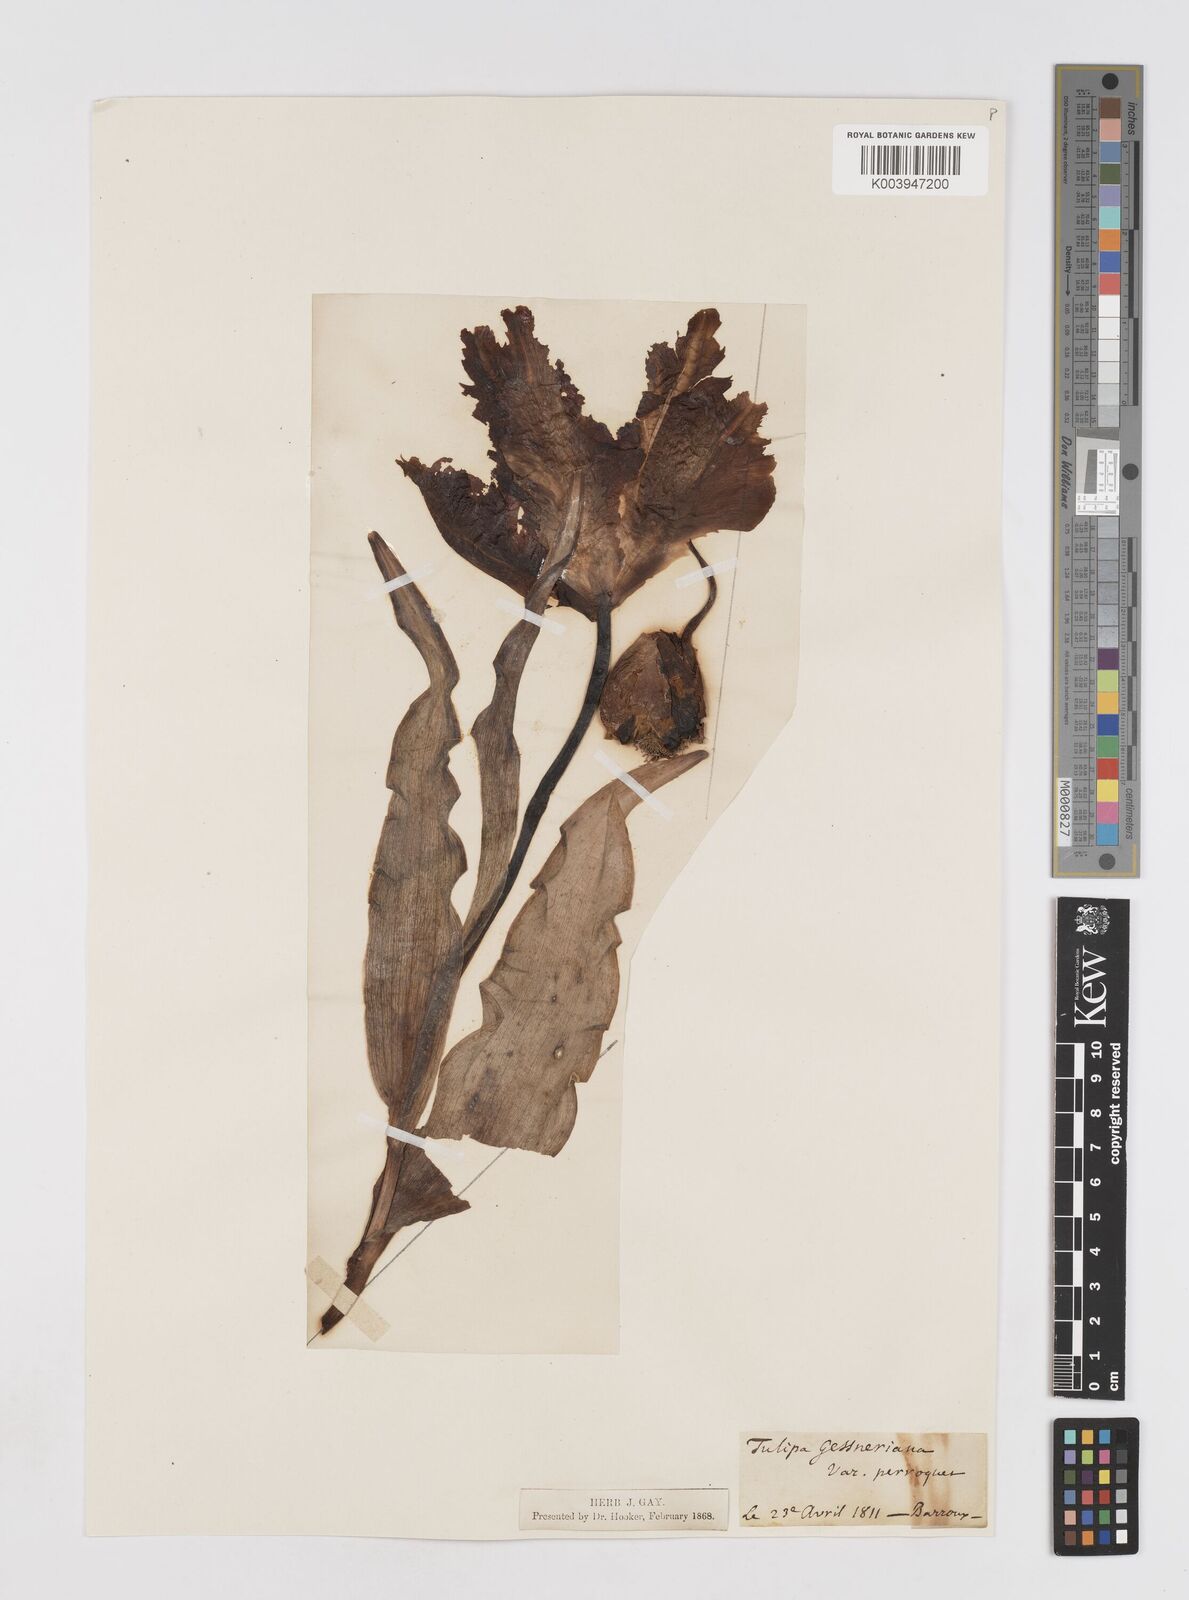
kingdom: Plantae
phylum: Tracheophyta
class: Liliopsida
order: Liliales
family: Liliaceae
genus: Tulipa
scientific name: Tulipa gesneriana
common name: Garden tulip
